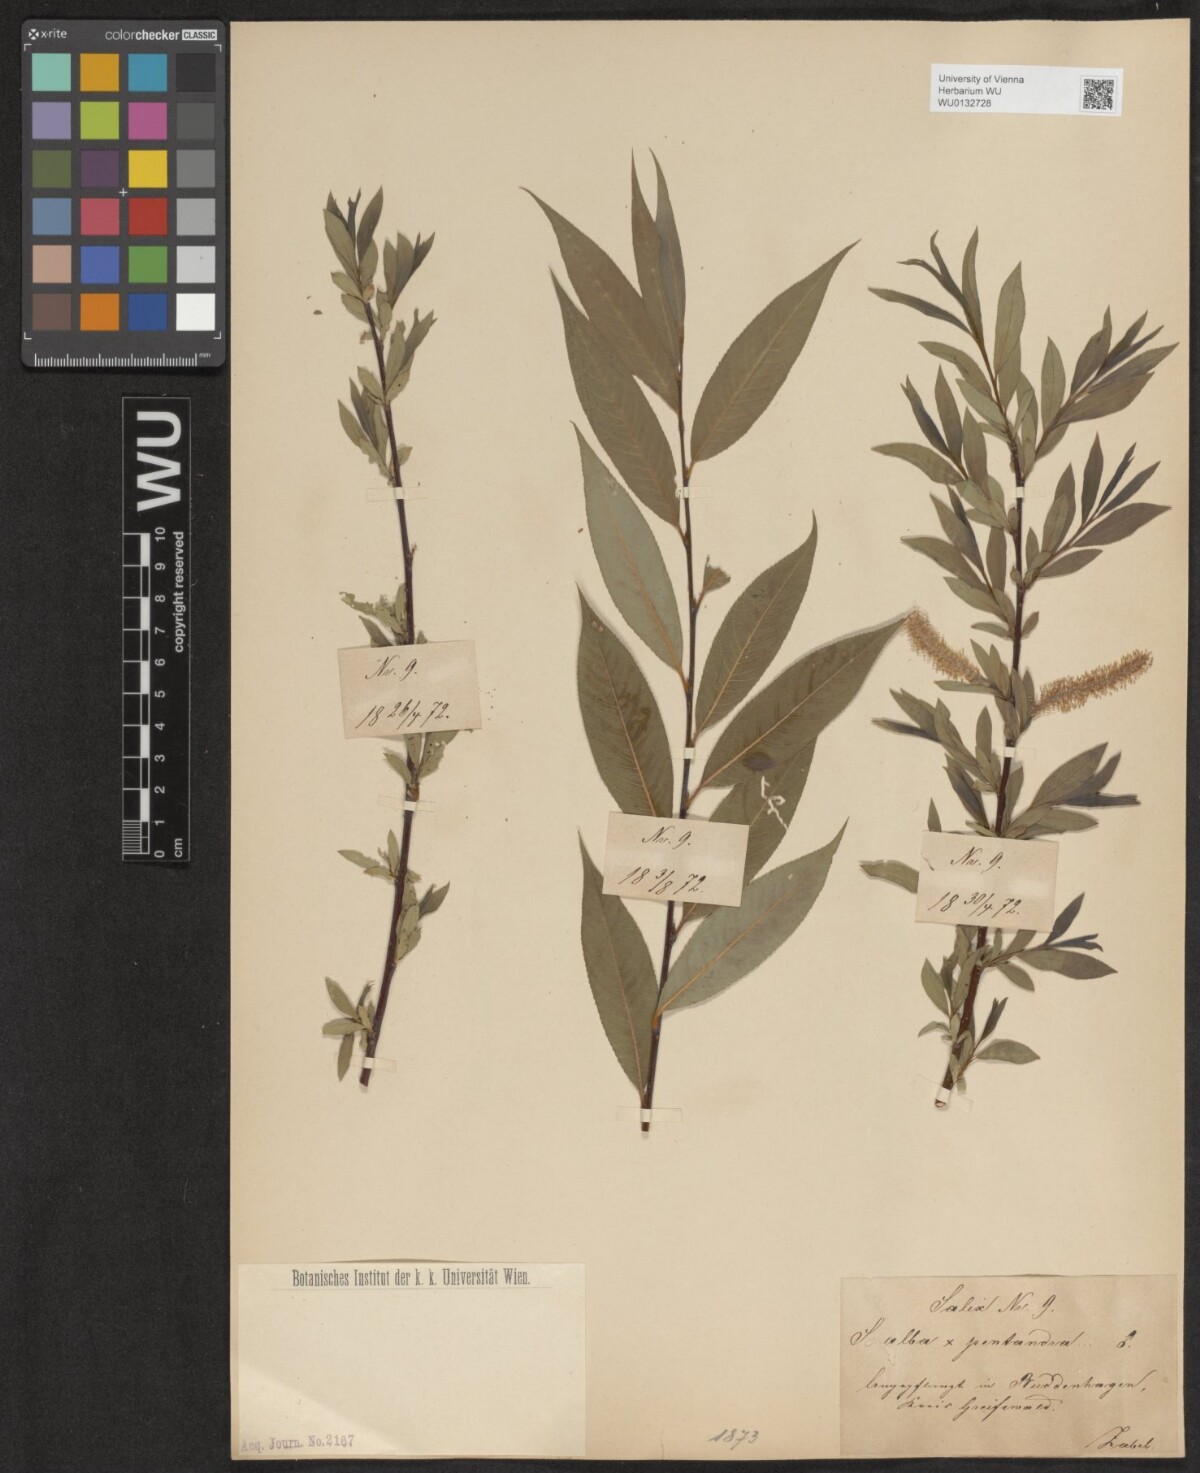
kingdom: Plantae
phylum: Tracheophyta
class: Magnoliopsida
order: Malpighiales
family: Salicaceae
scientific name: Salicaceae
